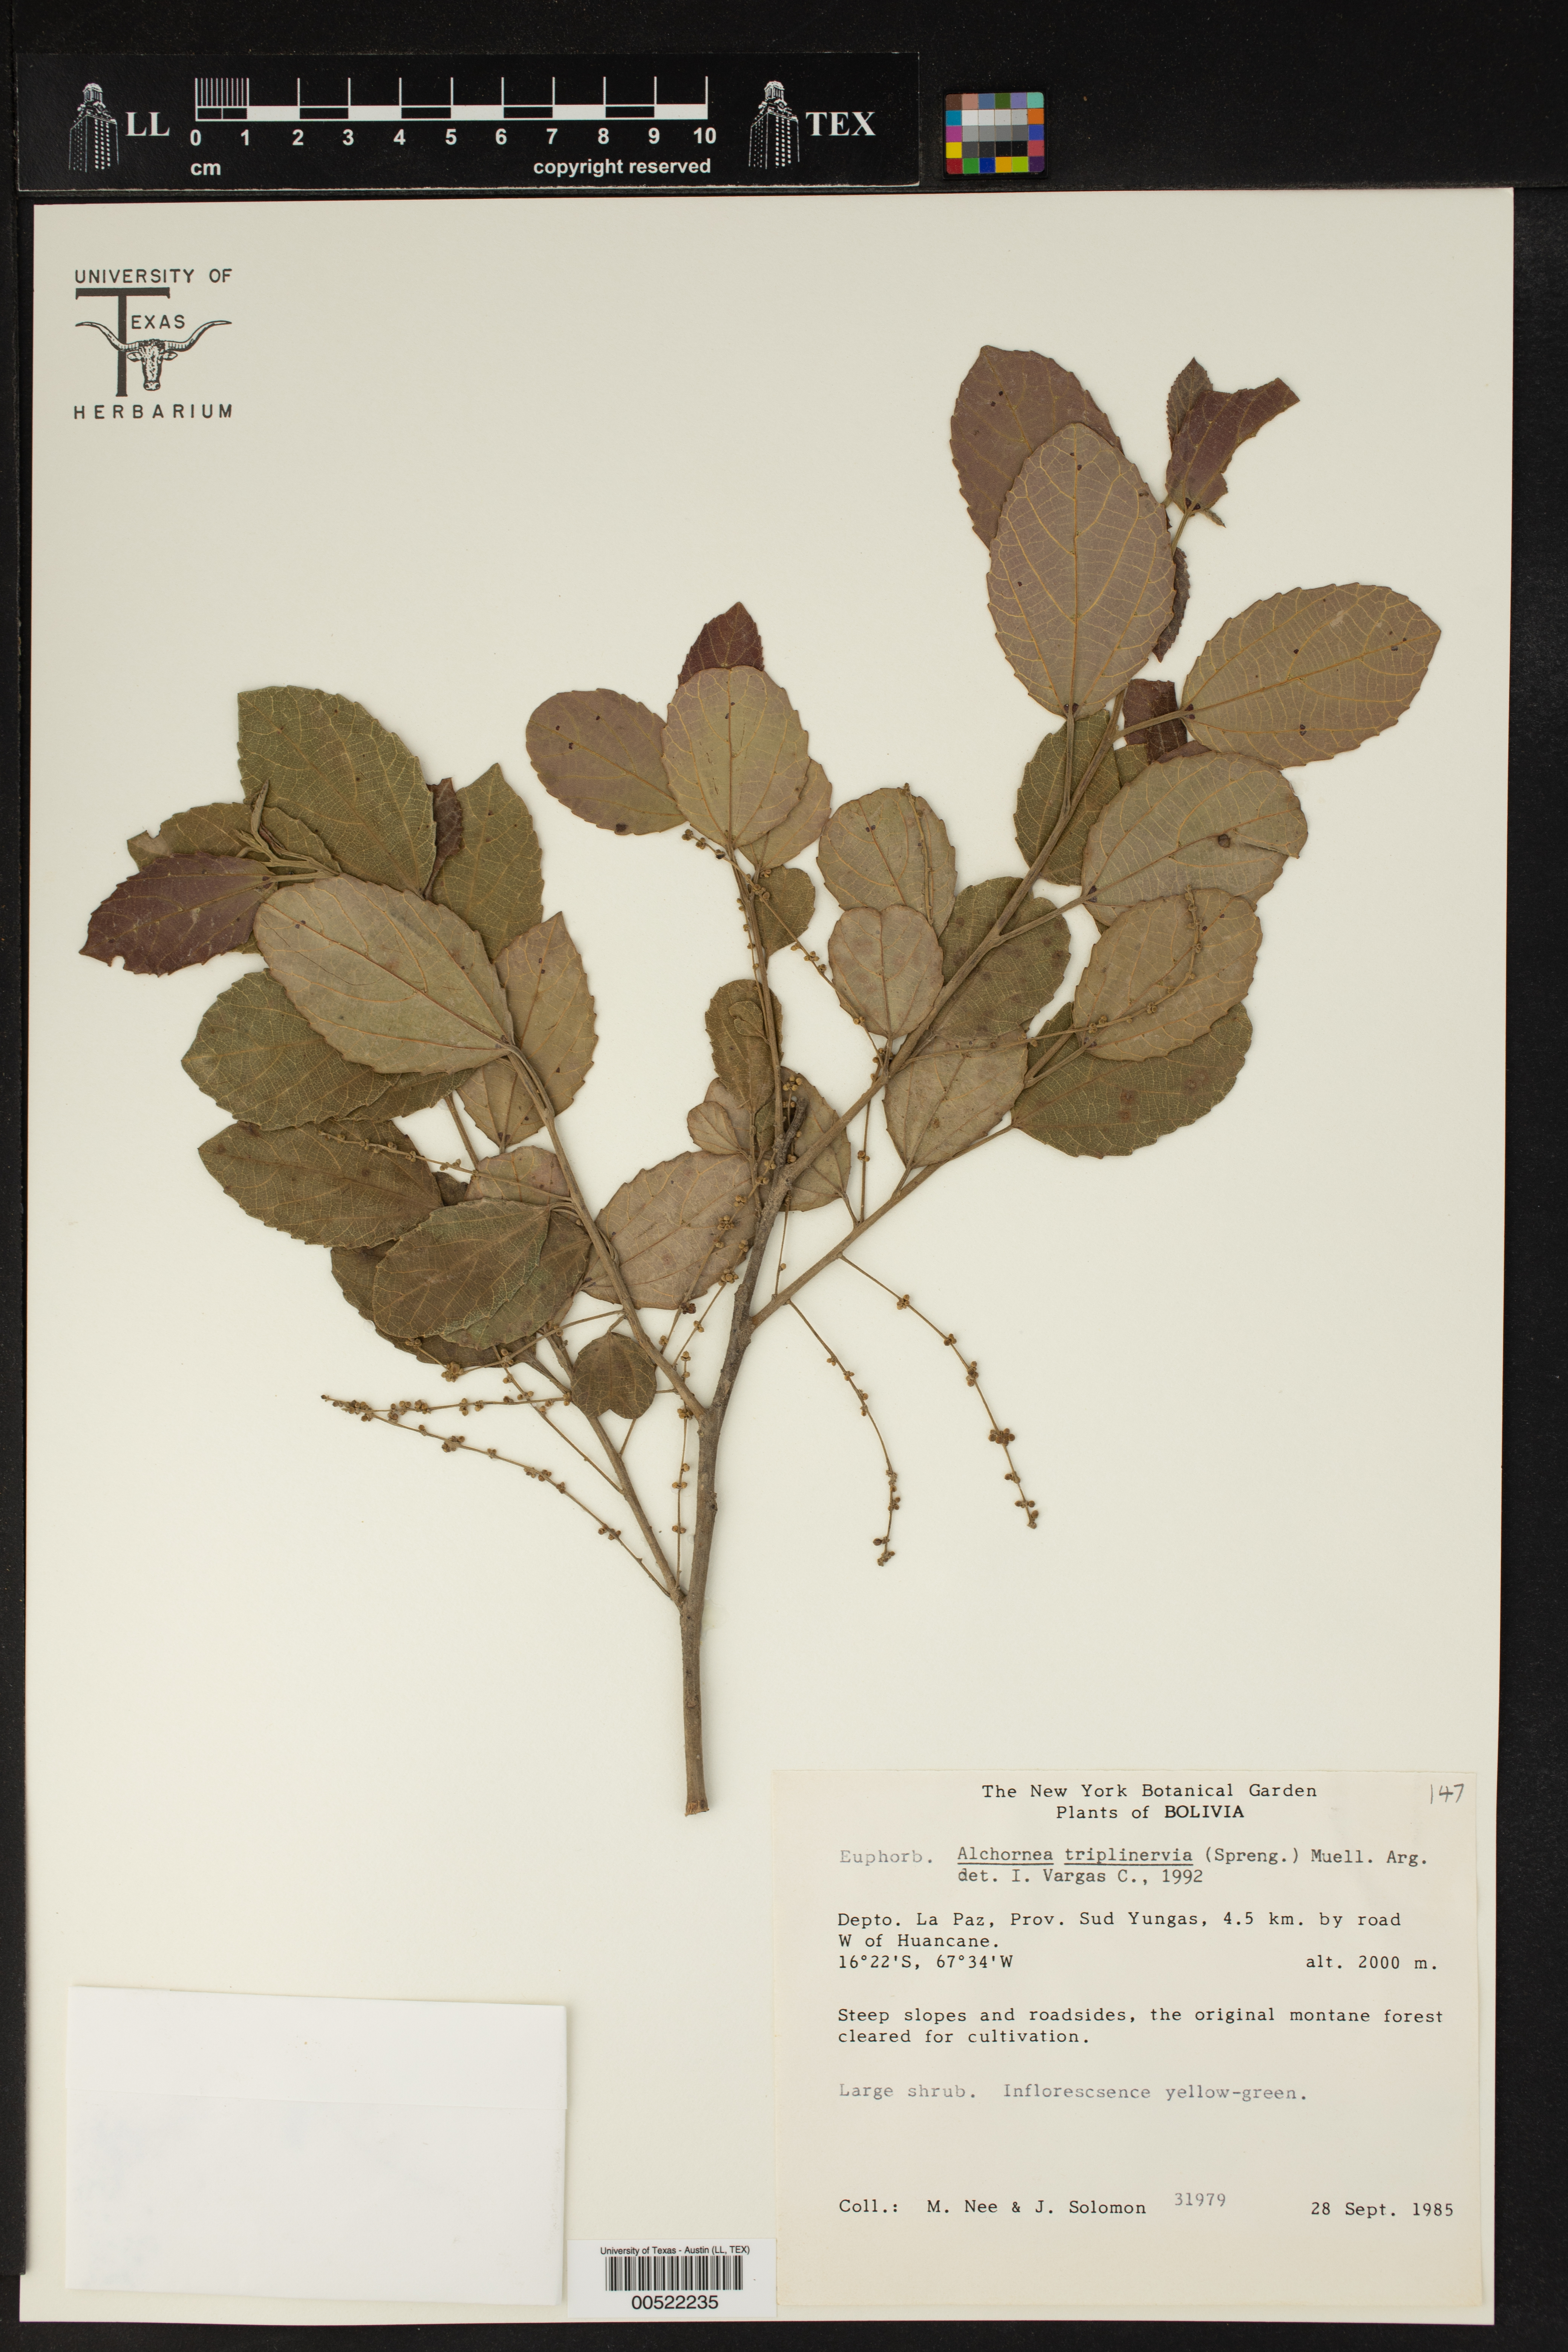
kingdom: Plantae
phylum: Tracheophyta
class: Magnoliopsida
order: Malpighiales
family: Euphorbiaceae
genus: Alchornea
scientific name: Alchornea triplinervia
